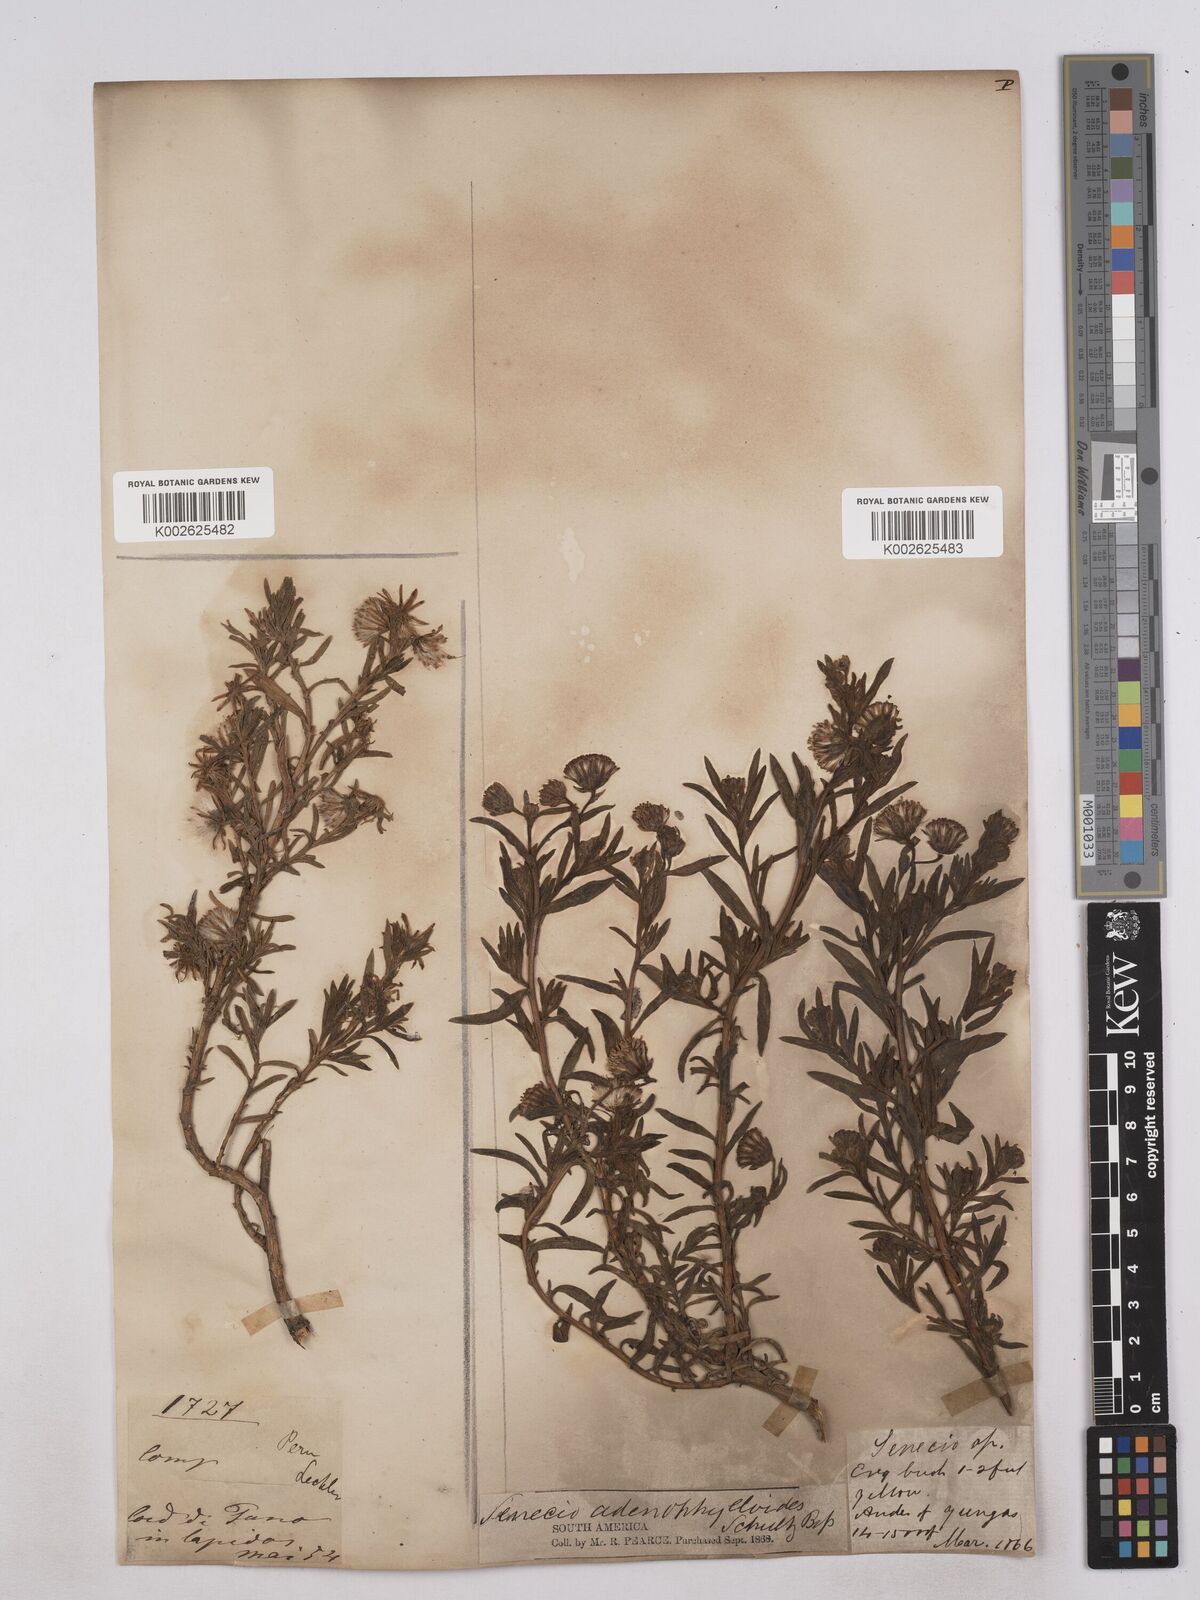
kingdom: Plantae
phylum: Tracheophyta
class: Magnoliopsida
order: Asterales
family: Asteraceae
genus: Culcitium
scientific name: Culcitium canescens
